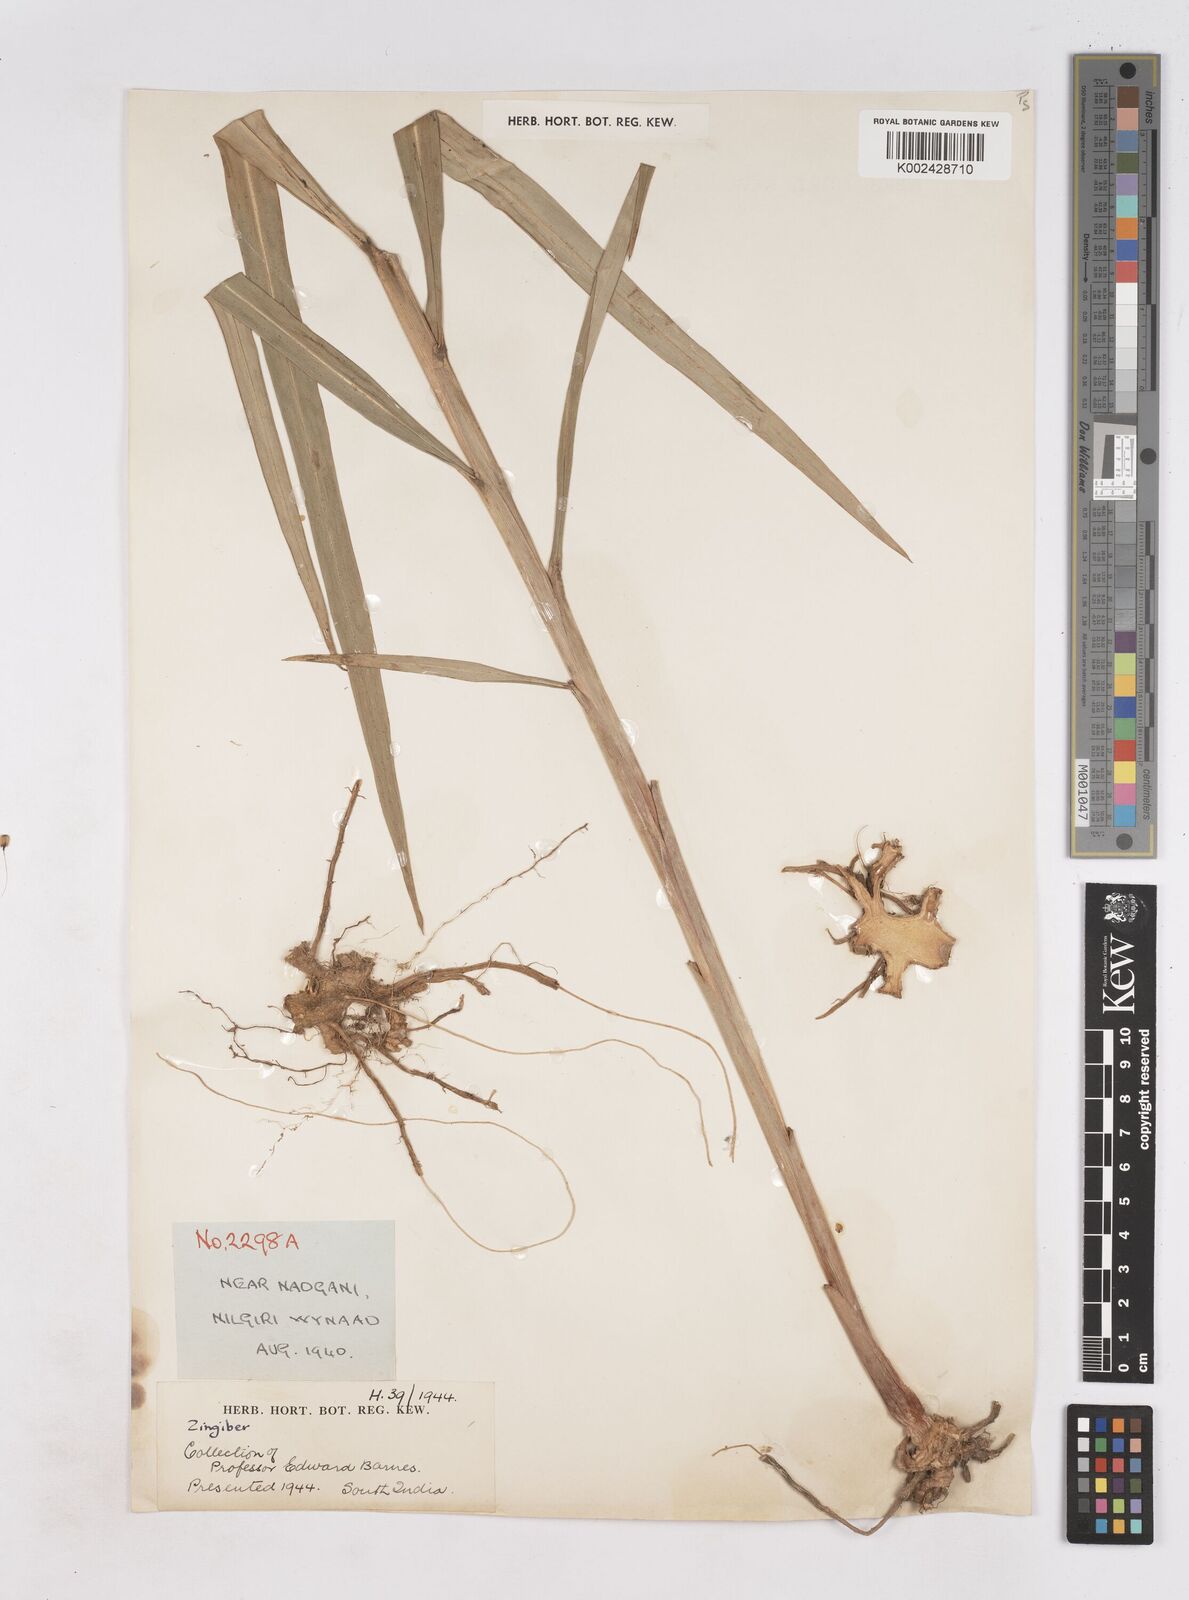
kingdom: Plantae
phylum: Tracheophyta
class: Liliopsida
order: Zingiberales
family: Zingiberaceae
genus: Zingiber
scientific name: Zingiber
